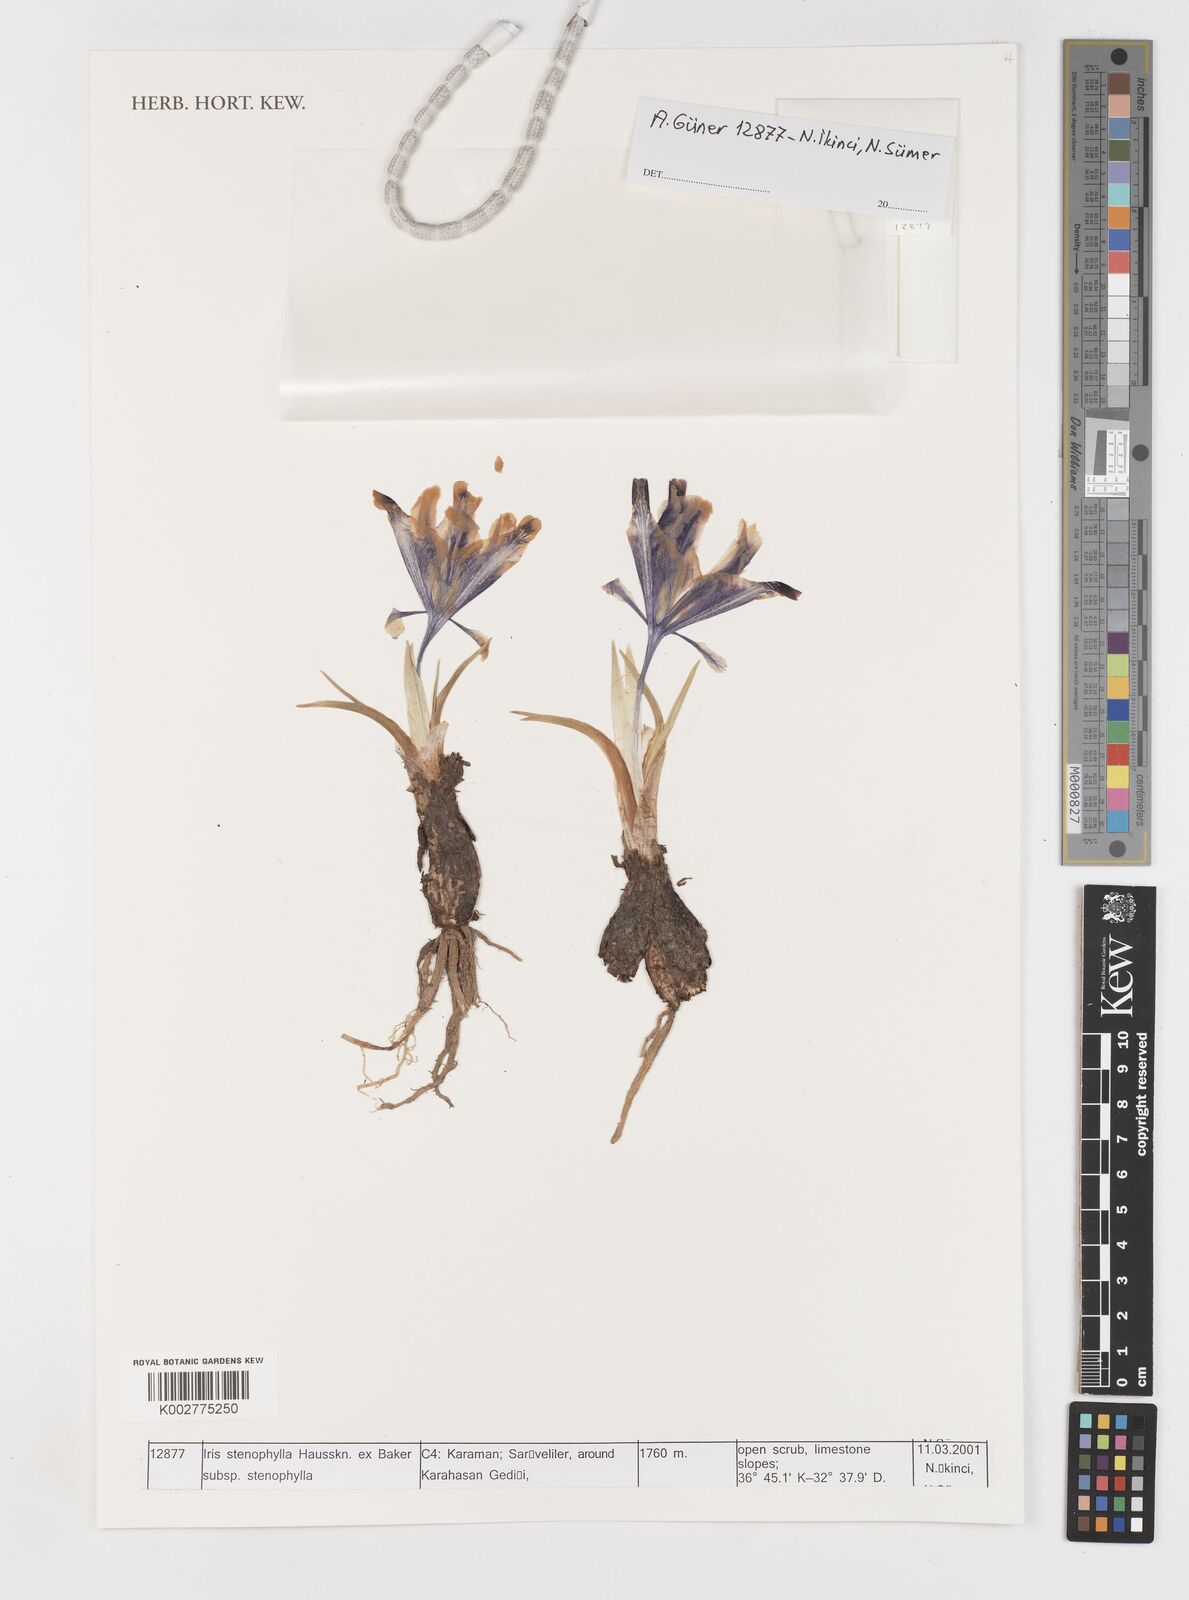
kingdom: Plantae
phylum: Tracheophyta
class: Liliopsida
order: Asparagales
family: Iridaceae
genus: Iris
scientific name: Iris stenophylla
